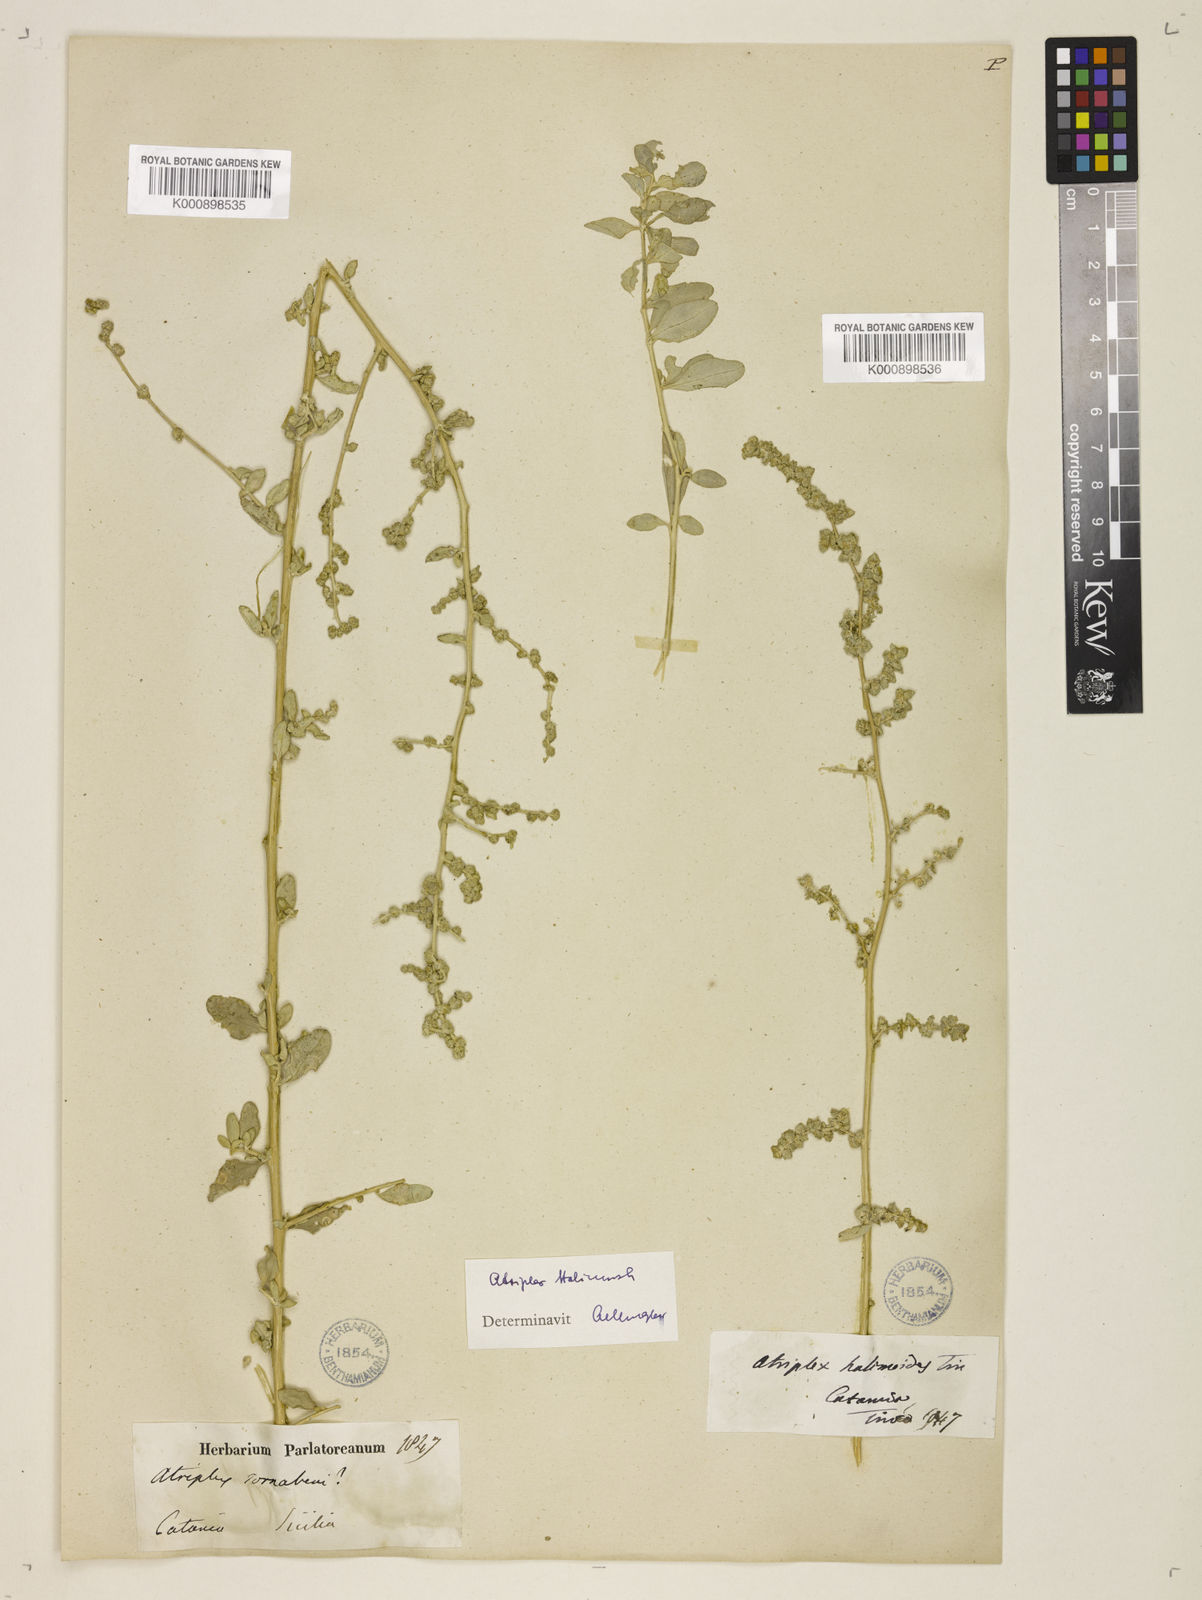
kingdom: Plantae
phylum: Tracheophyta
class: Magnoliopsida
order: Caryophyllales
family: Amaranthaceae
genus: Atriplex
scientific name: Atriplex
